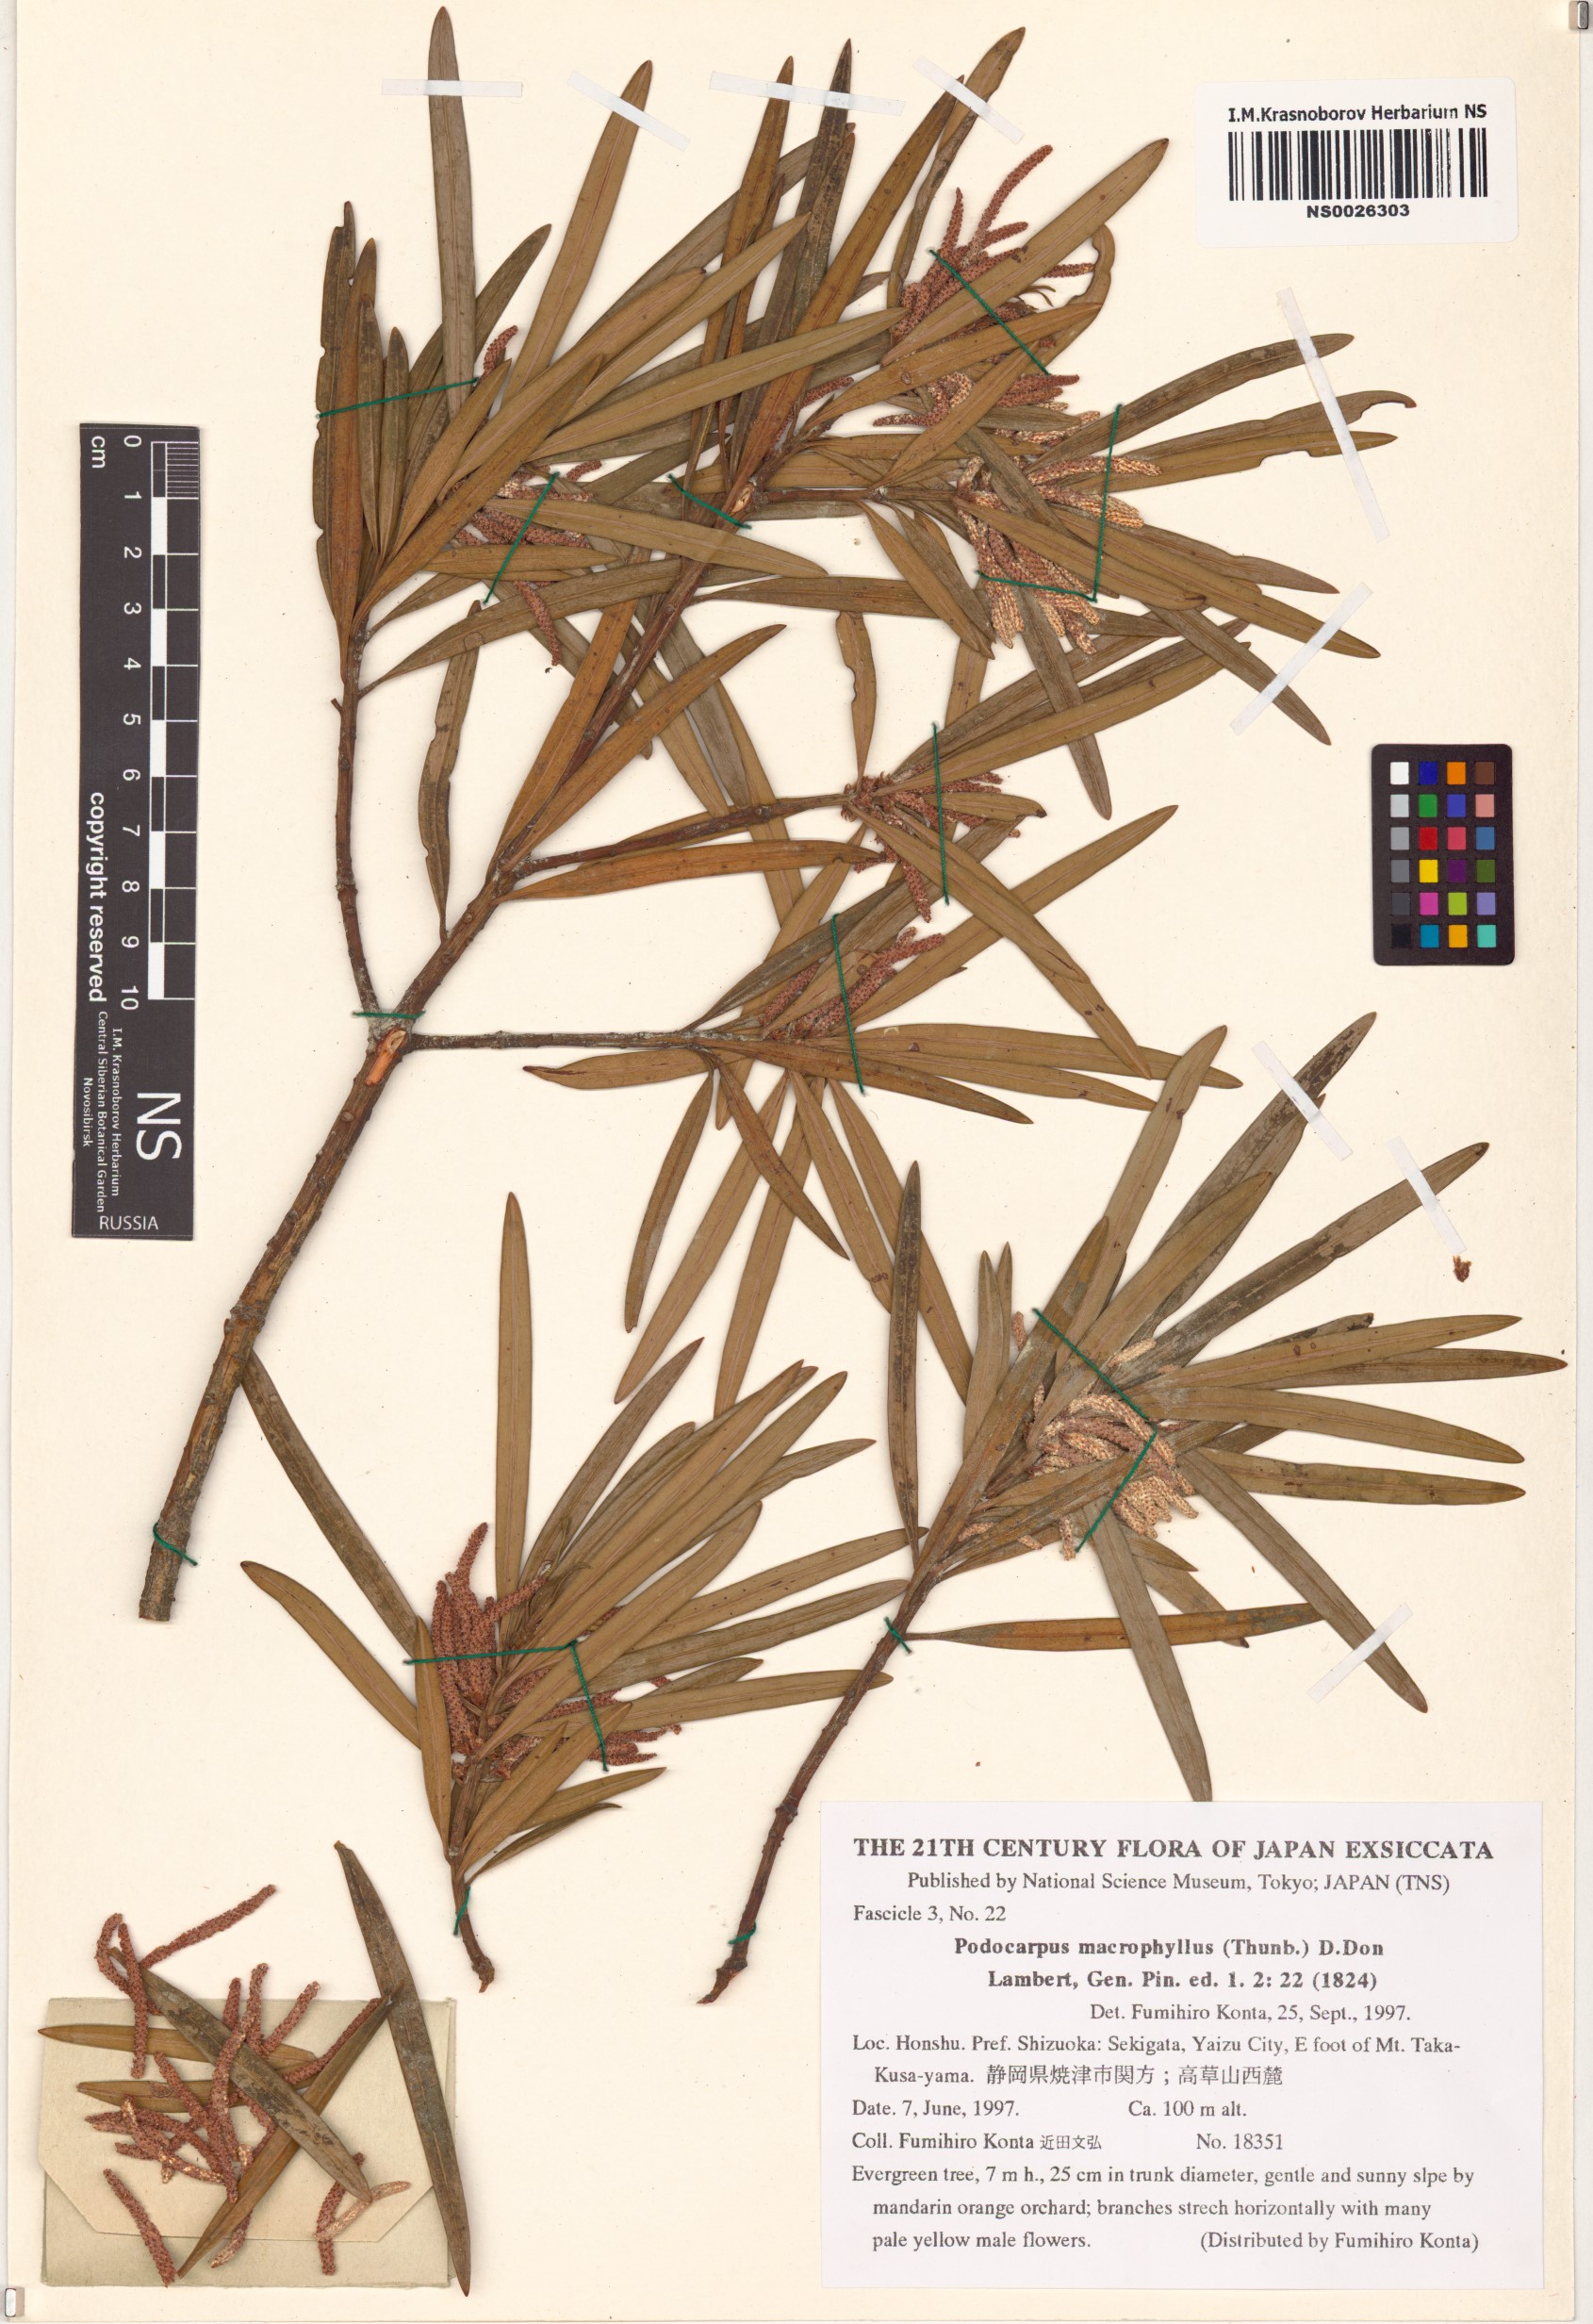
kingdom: Plantae
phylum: Tracheophyta
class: Pinopsida
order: Pinales
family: Podocarpaceae
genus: Podocarpus
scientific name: Podocarpus macrophyllus
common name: Japanese yew
